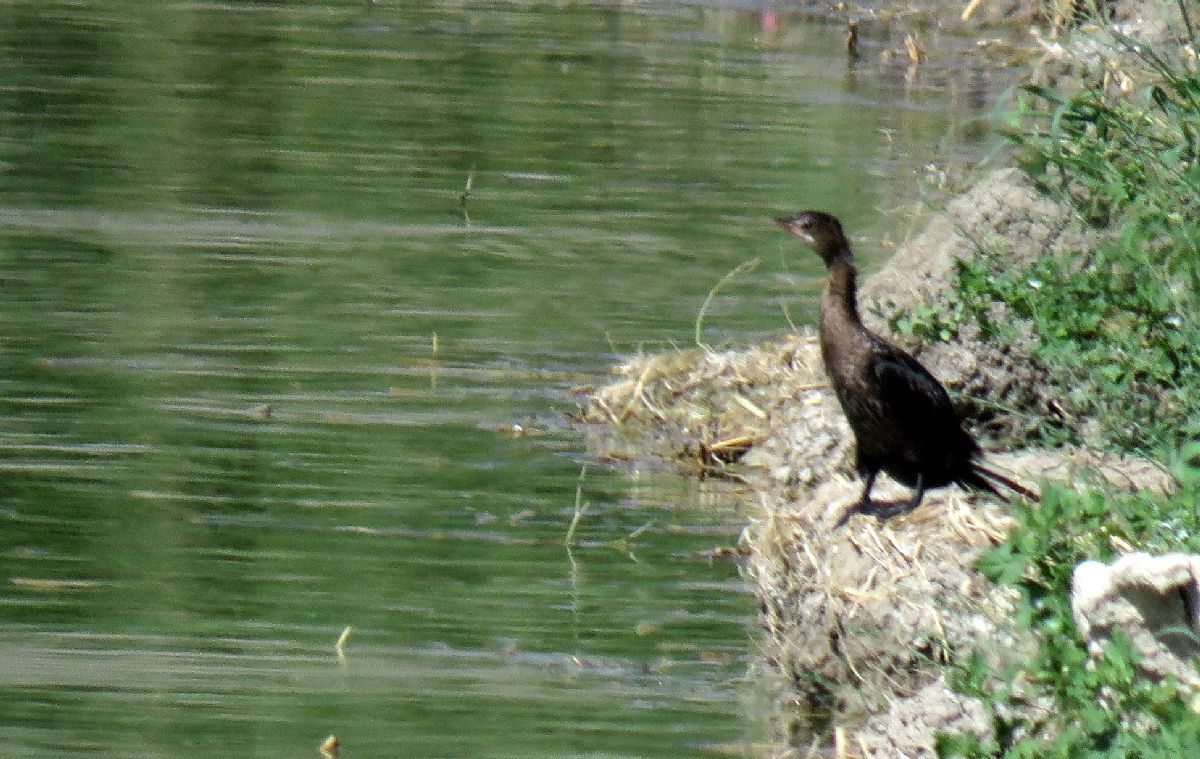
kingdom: Animalia
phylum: Chordata
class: Aves
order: Suliformes
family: Phalacrocoracidae
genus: Microcarbo
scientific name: Microcarbo pygmeus
